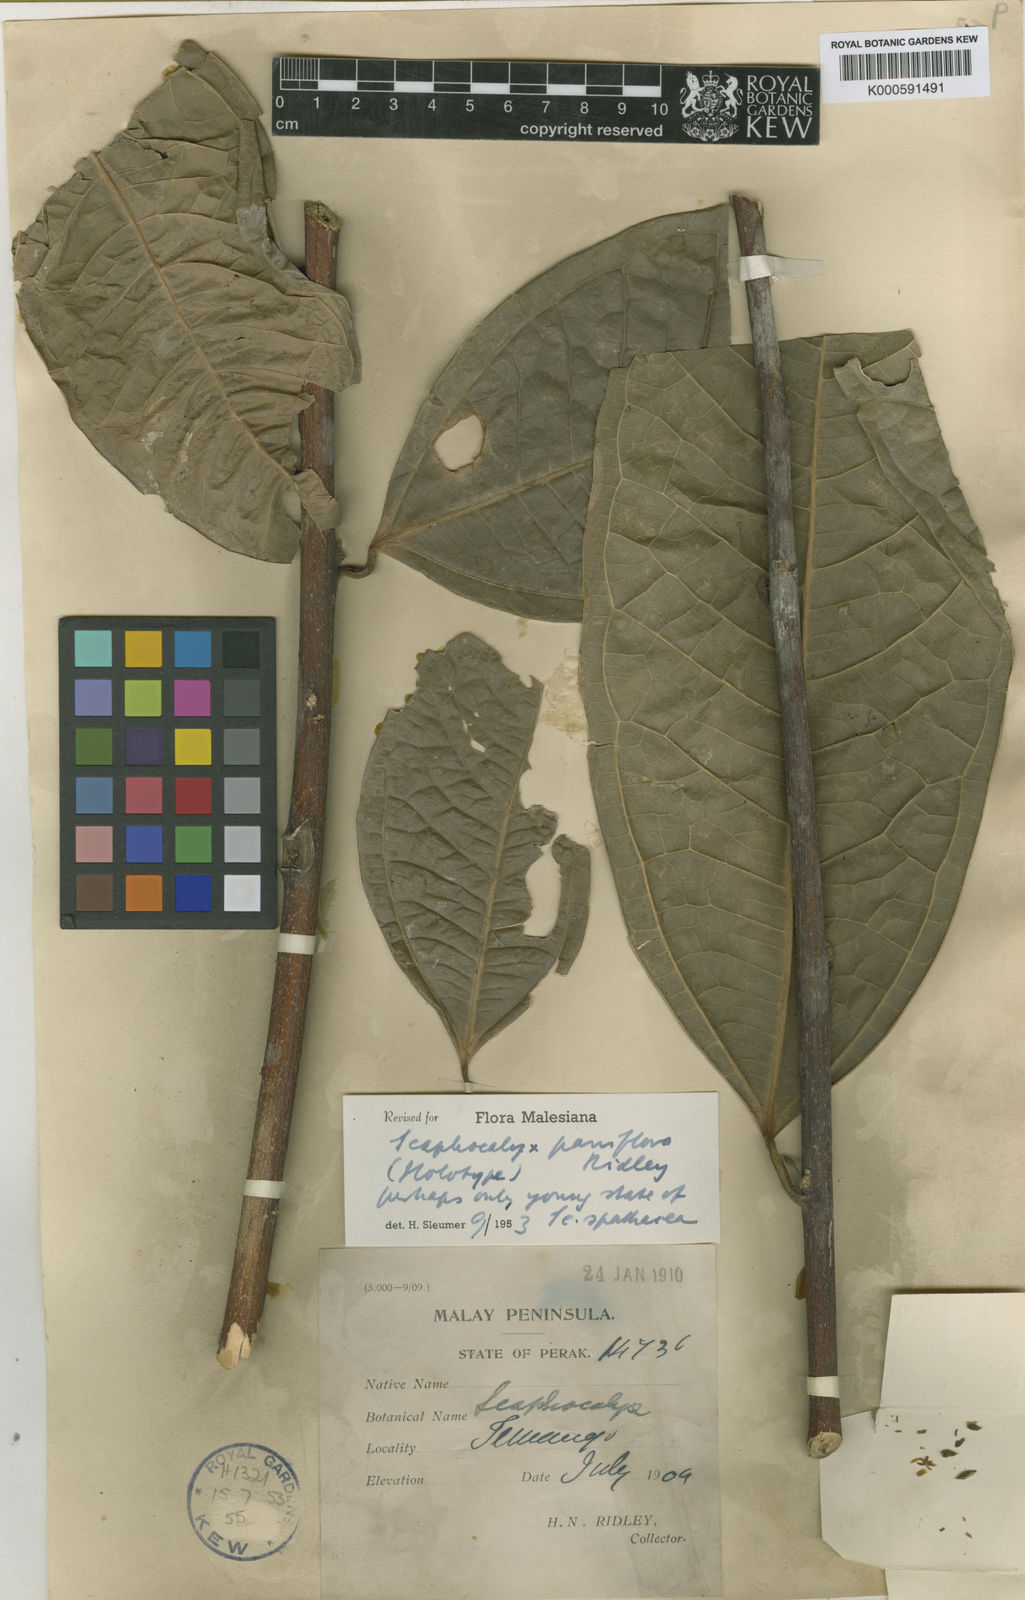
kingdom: Plantae
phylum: Tracheophyta
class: Magnoliopsida
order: Malpighiales
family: Achariaceae
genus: Scaphocalyx
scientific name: Scaphocalyx spathacea
